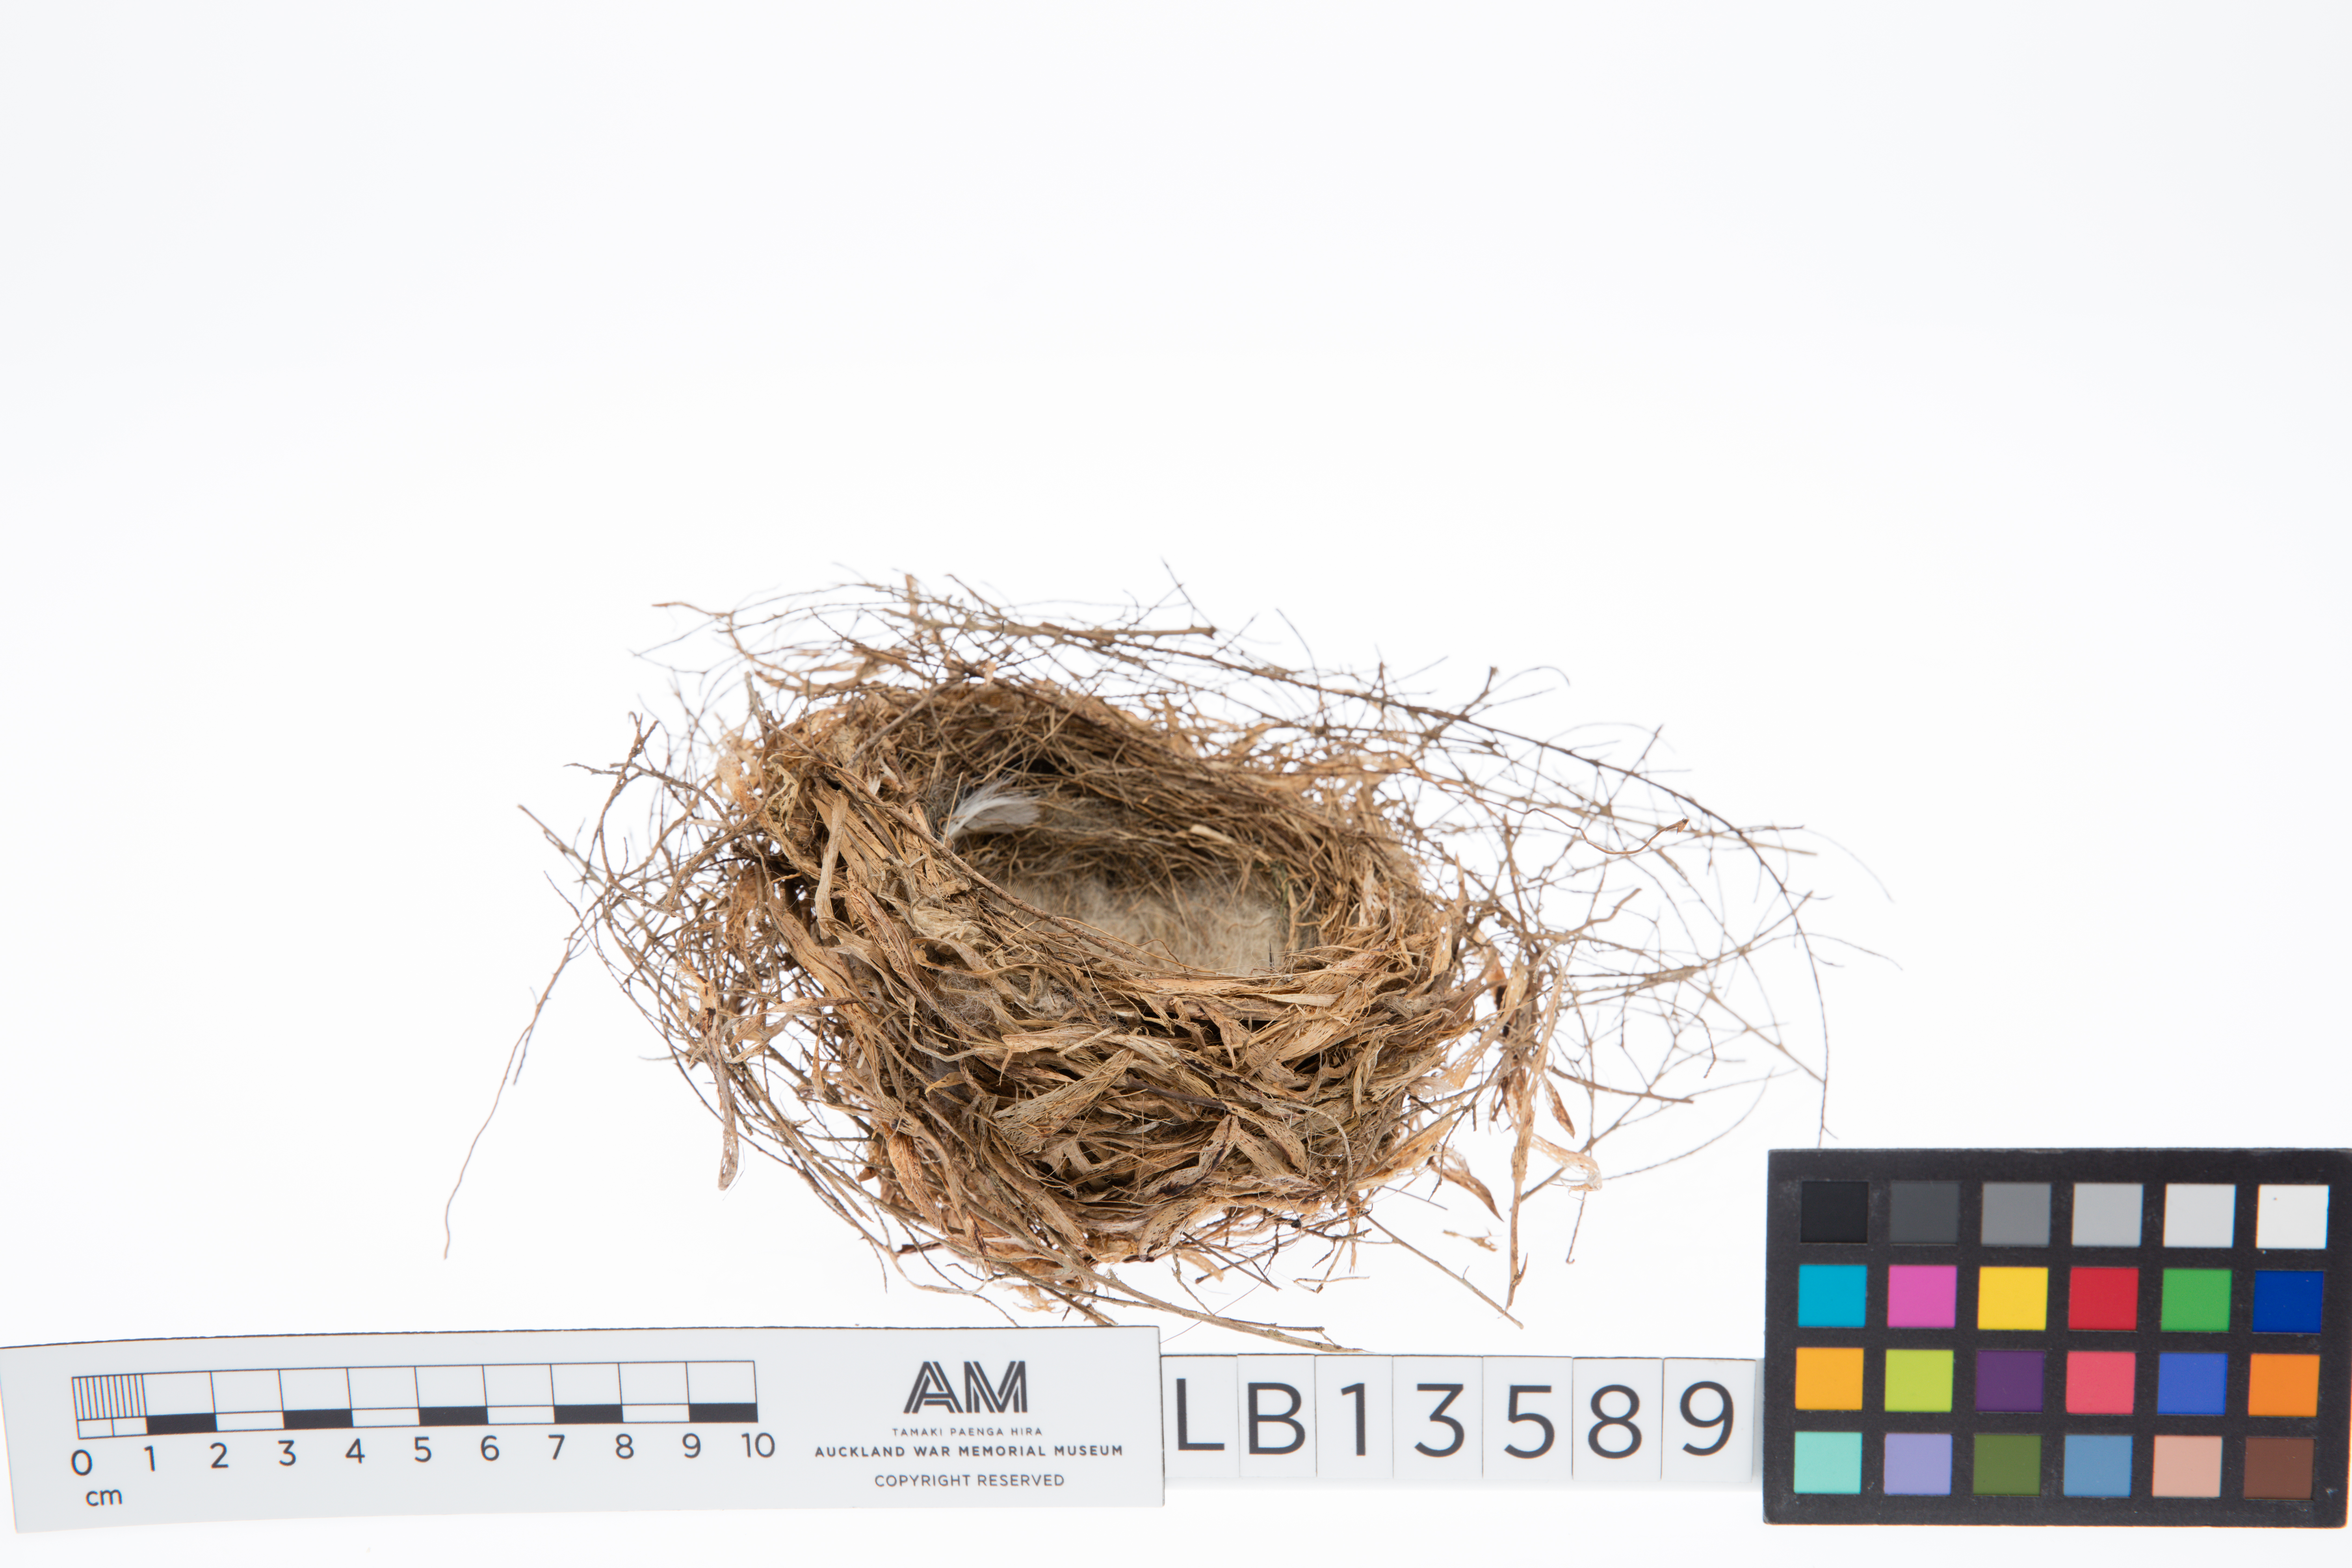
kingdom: Plantae
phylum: Tracheophyta
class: Liliopsida
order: Poales
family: Poaceae
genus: Chloris
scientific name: Chloris chloris
